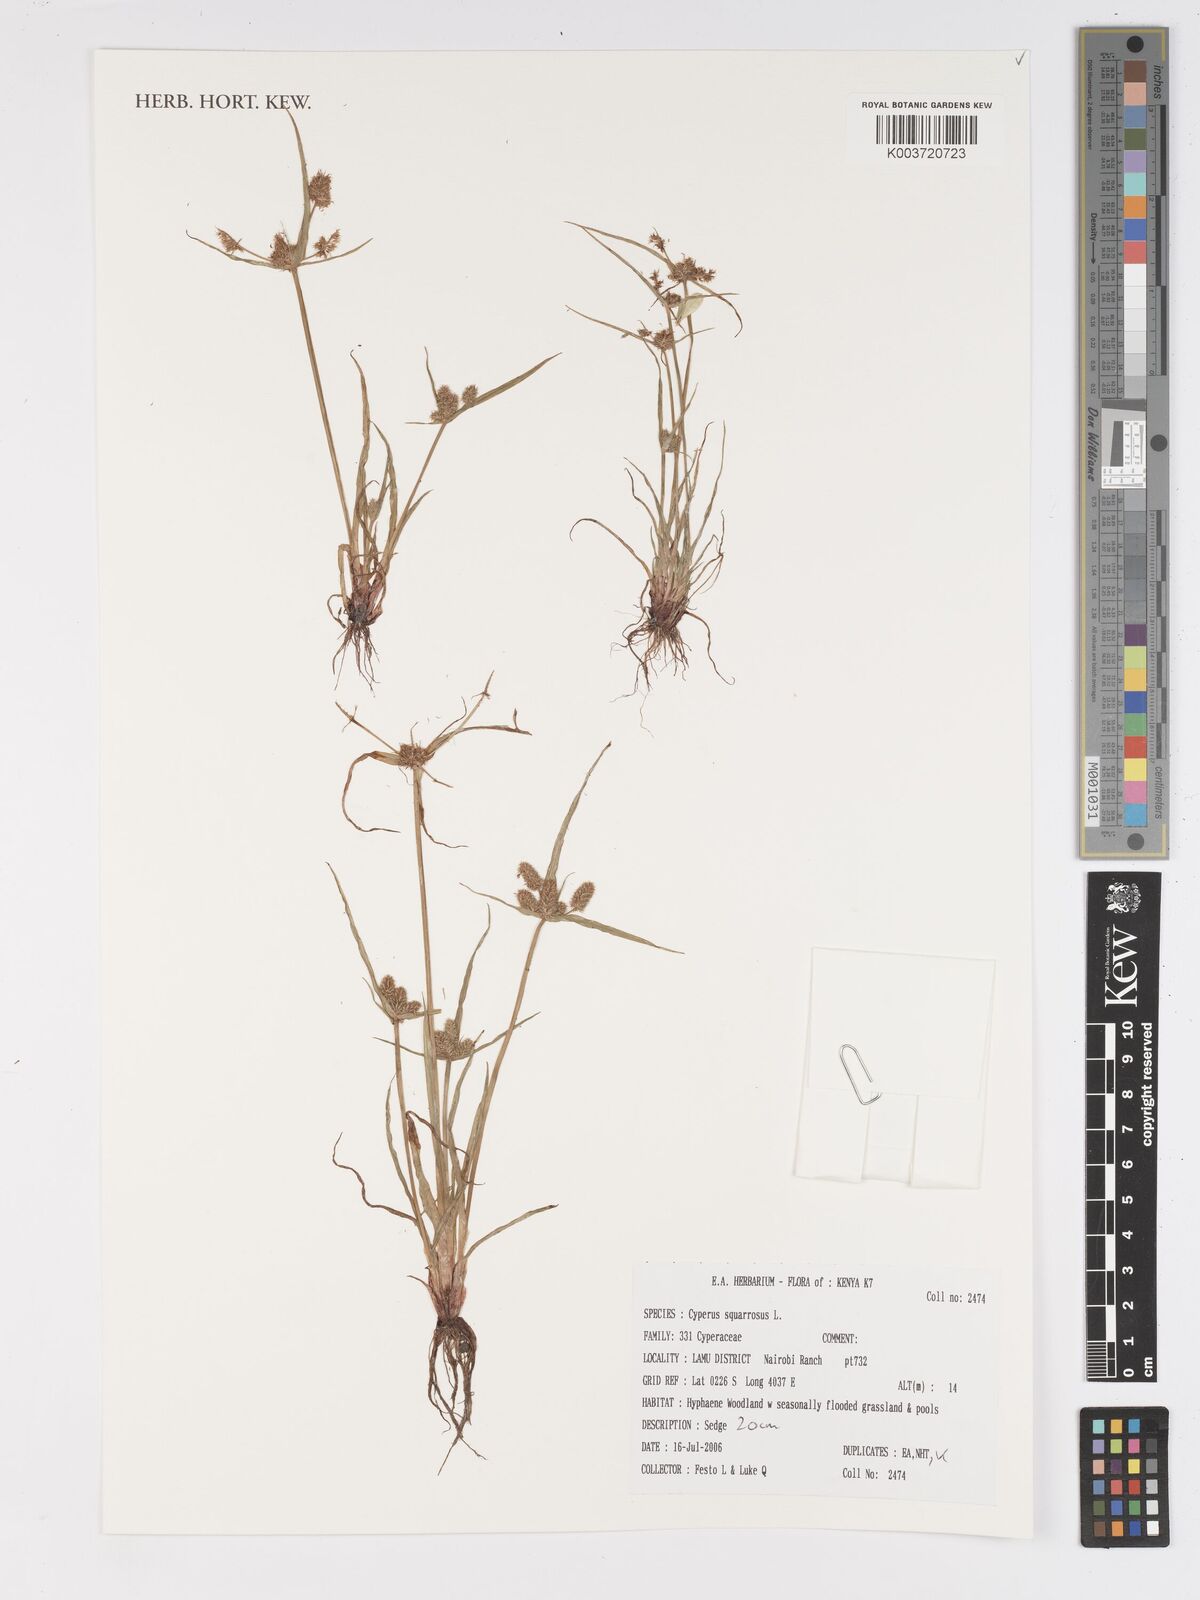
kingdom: Plantae
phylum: Tracheophyta
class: Liliopsida
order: Poales
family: Cyperaceae
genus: Cyperus
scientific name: Cyperus squarrosus
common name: Awned cyperus
